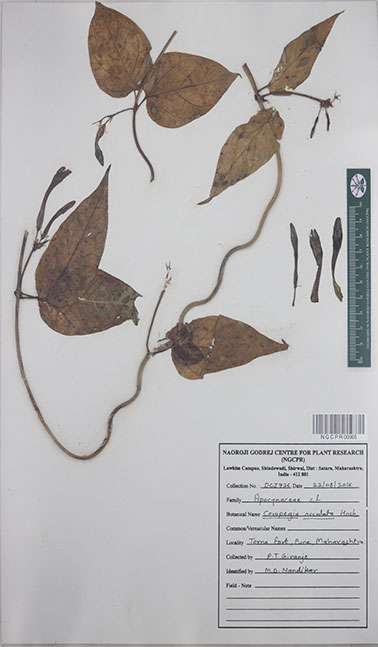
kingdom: Plantae
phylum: Tracheophyta
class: Magnoliopsida
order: Gentianales
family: Apocynaceae
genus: Ceropegia
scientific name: Ceropegia oculata
